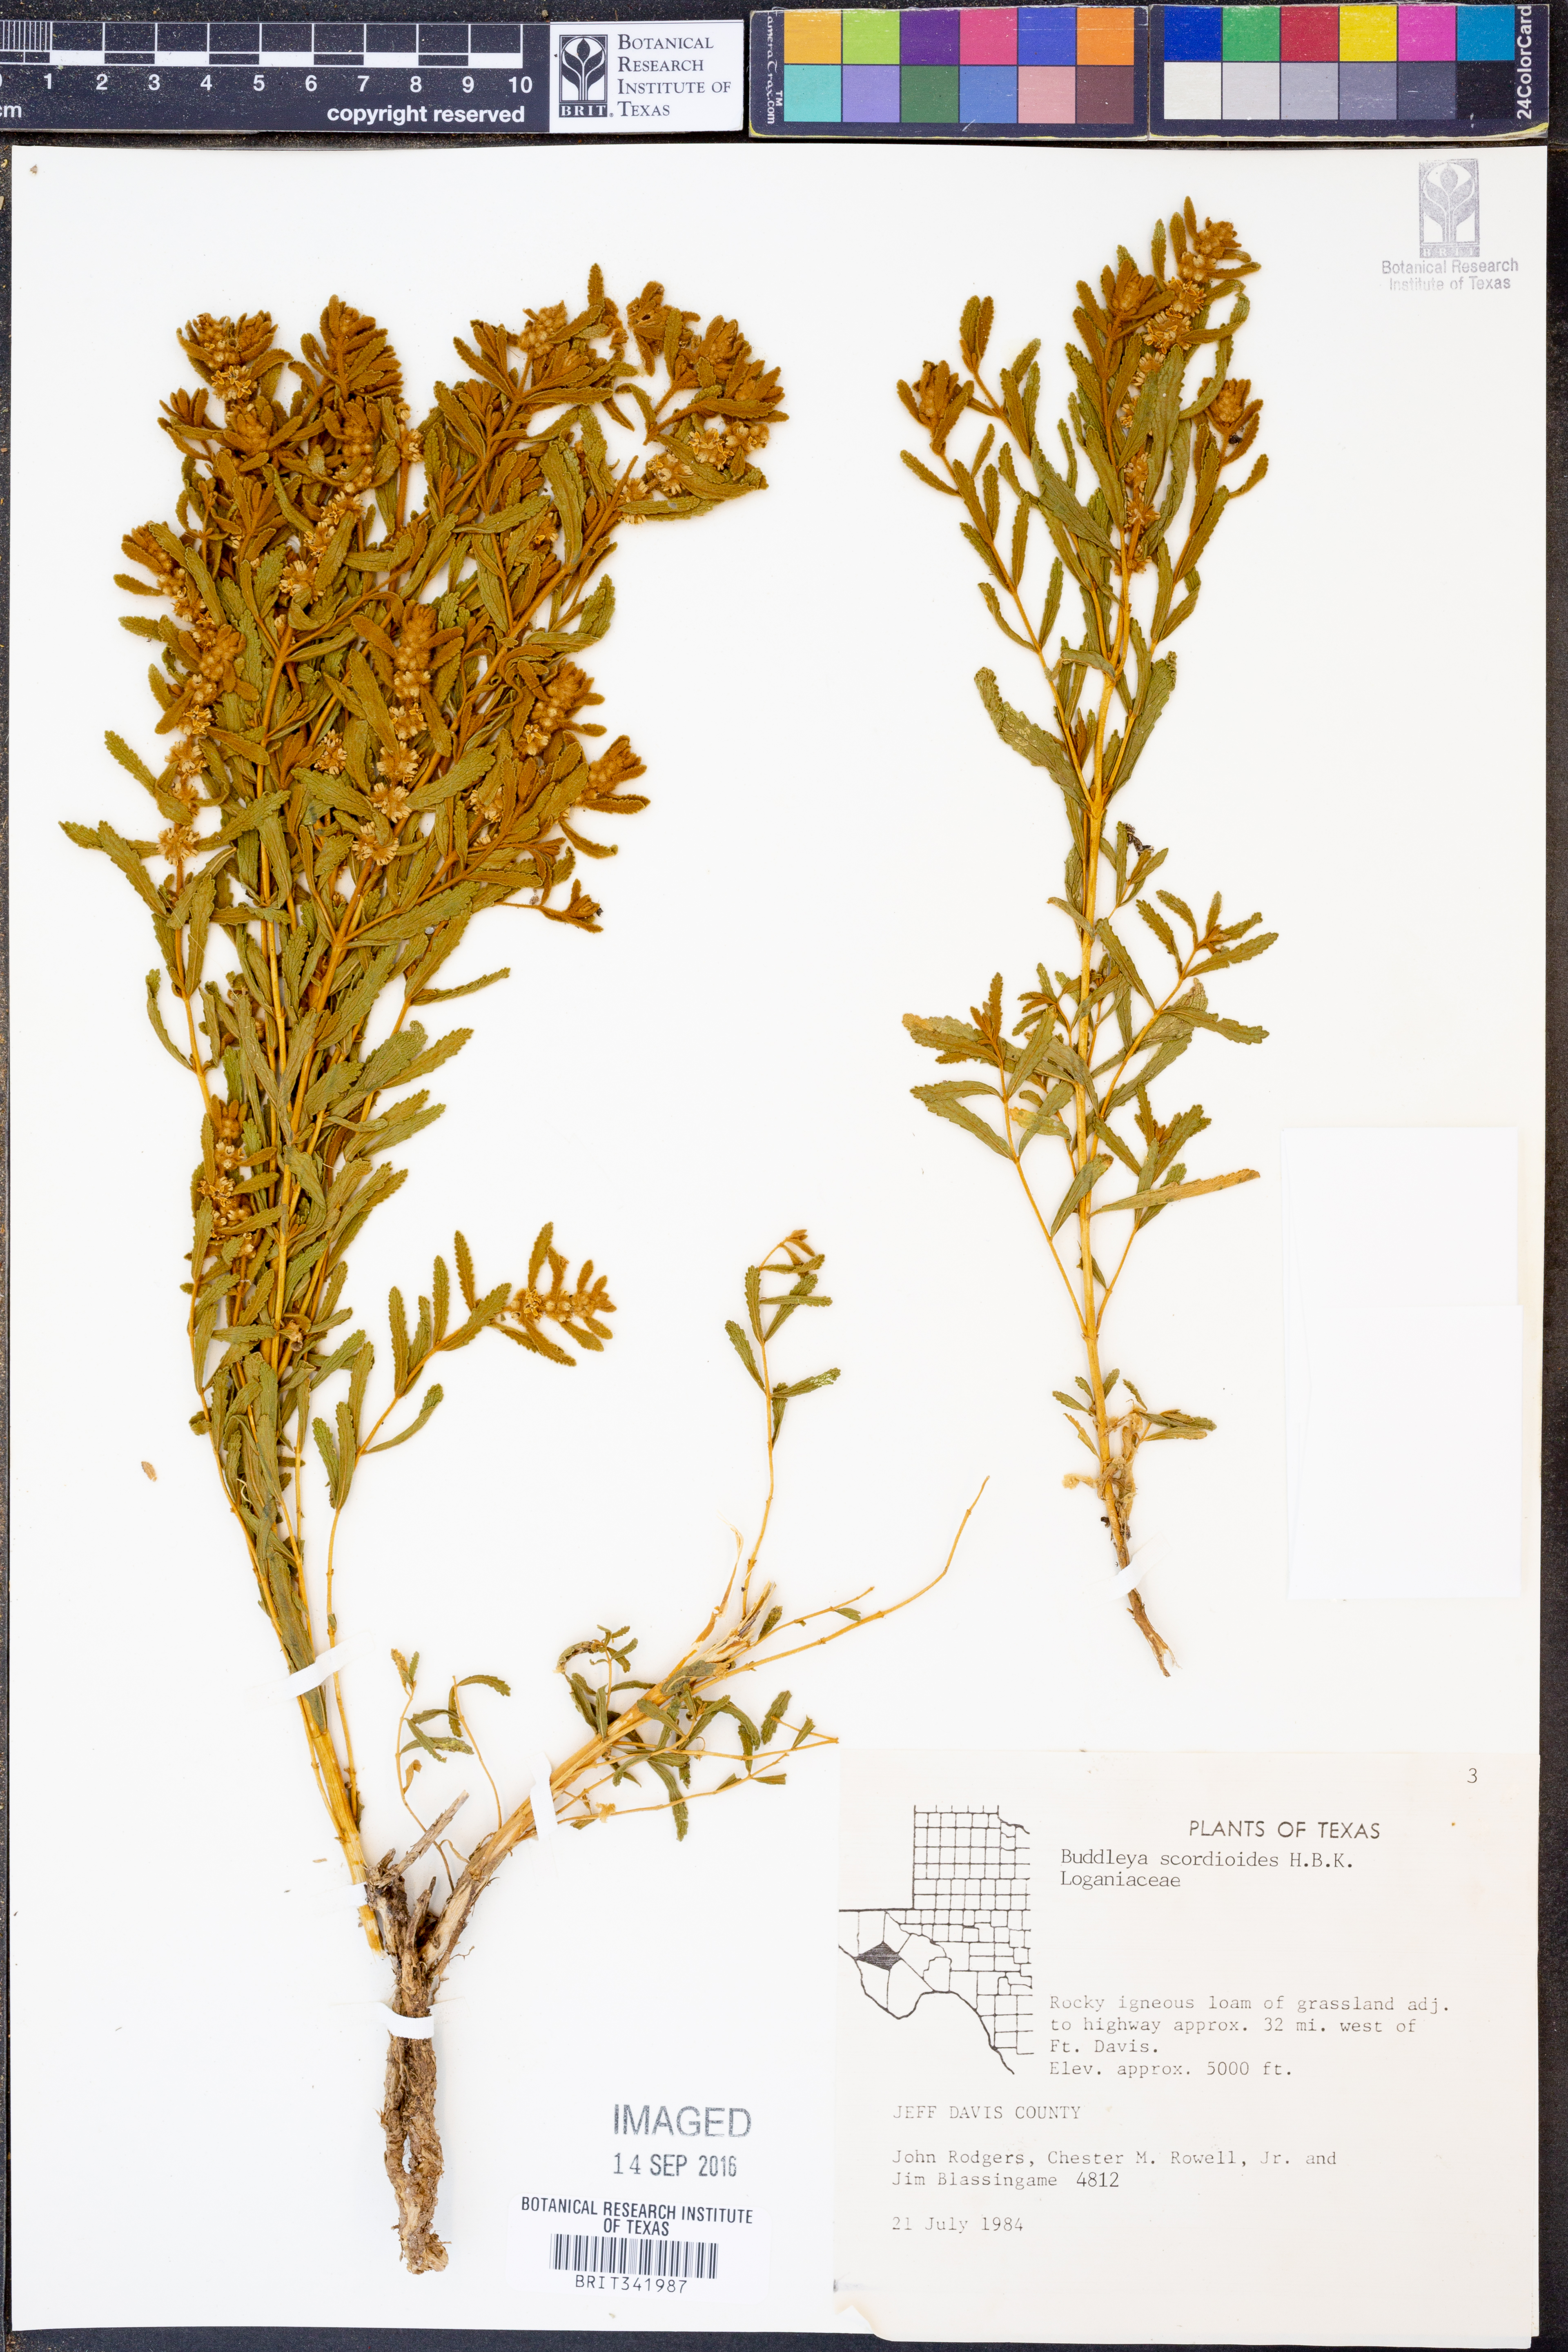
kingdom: Plantae
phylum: Tracheophyta
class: Magnoliopsida
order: Lamiales
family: Scrophulariaceae
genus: Buddleja
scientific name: Buddleja scordioides
